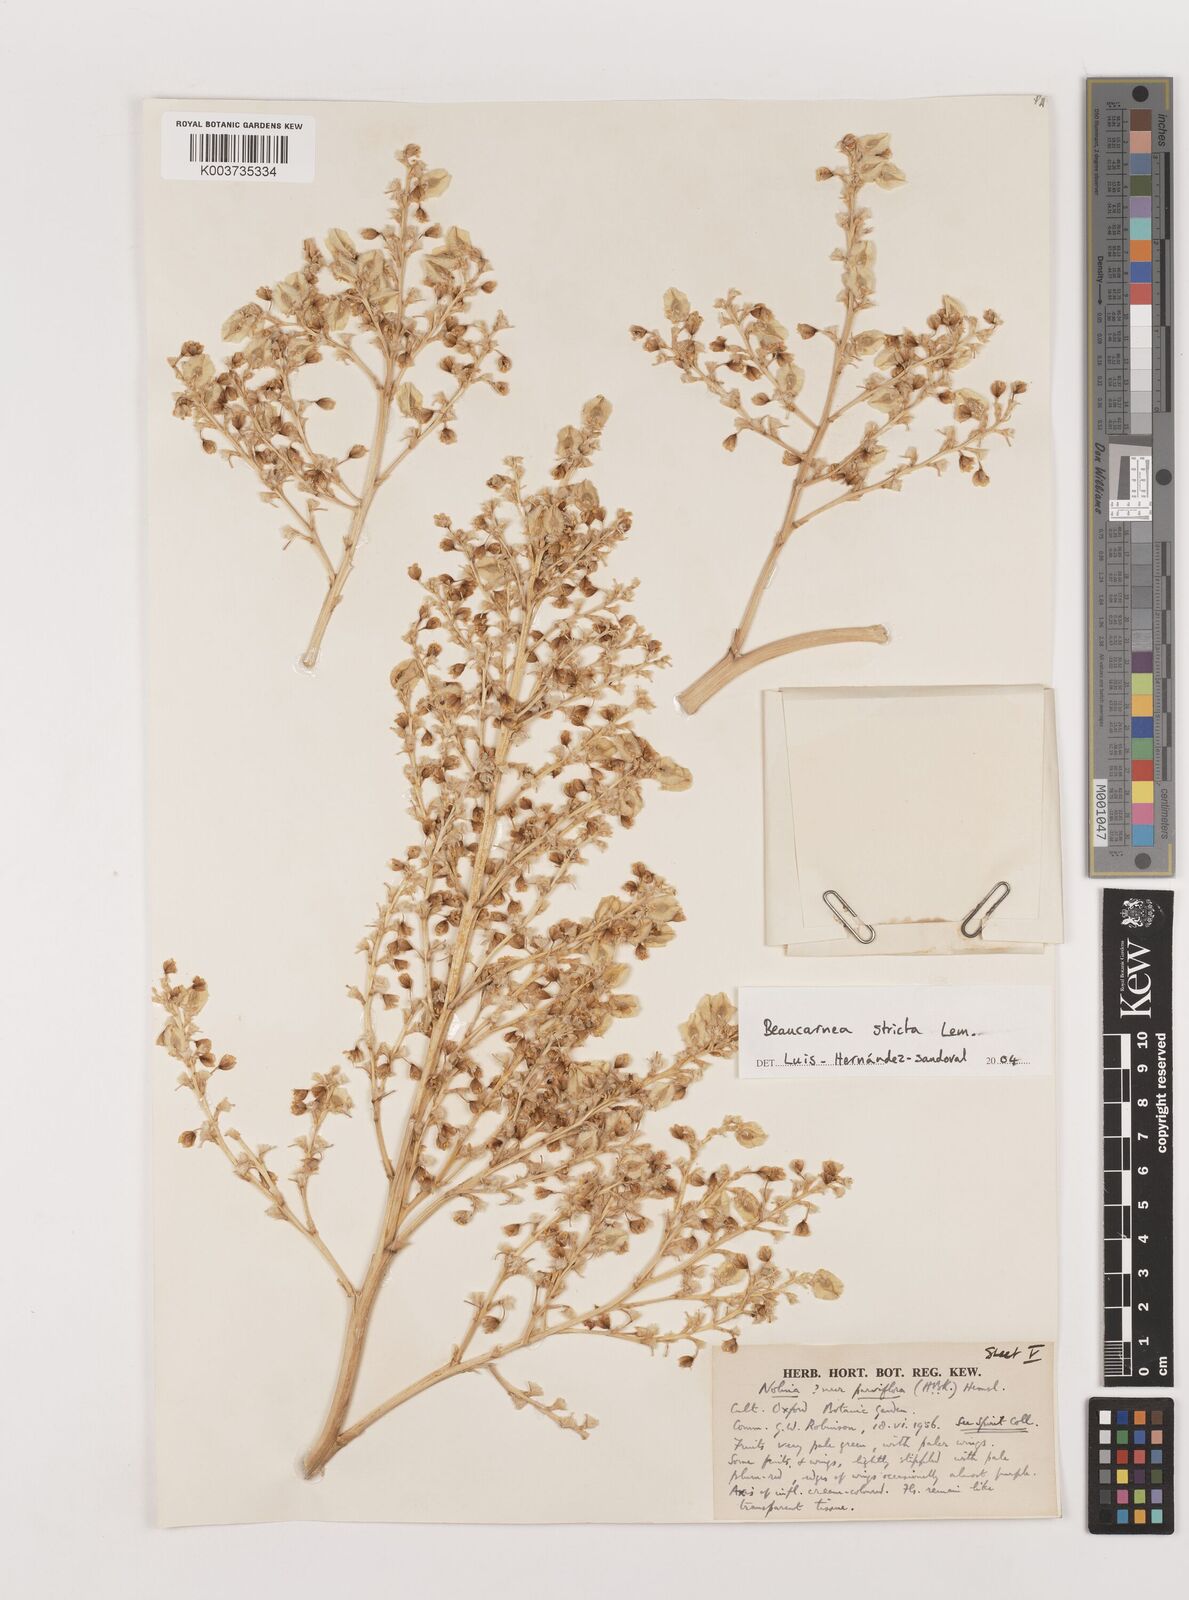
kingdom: Plantae
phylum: Tracheophyta
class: Liliopsida
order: Asparagales
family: Asparagaceae
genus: Beaucarnea
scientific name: Beaucarnea stricta
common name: Bottle palm
